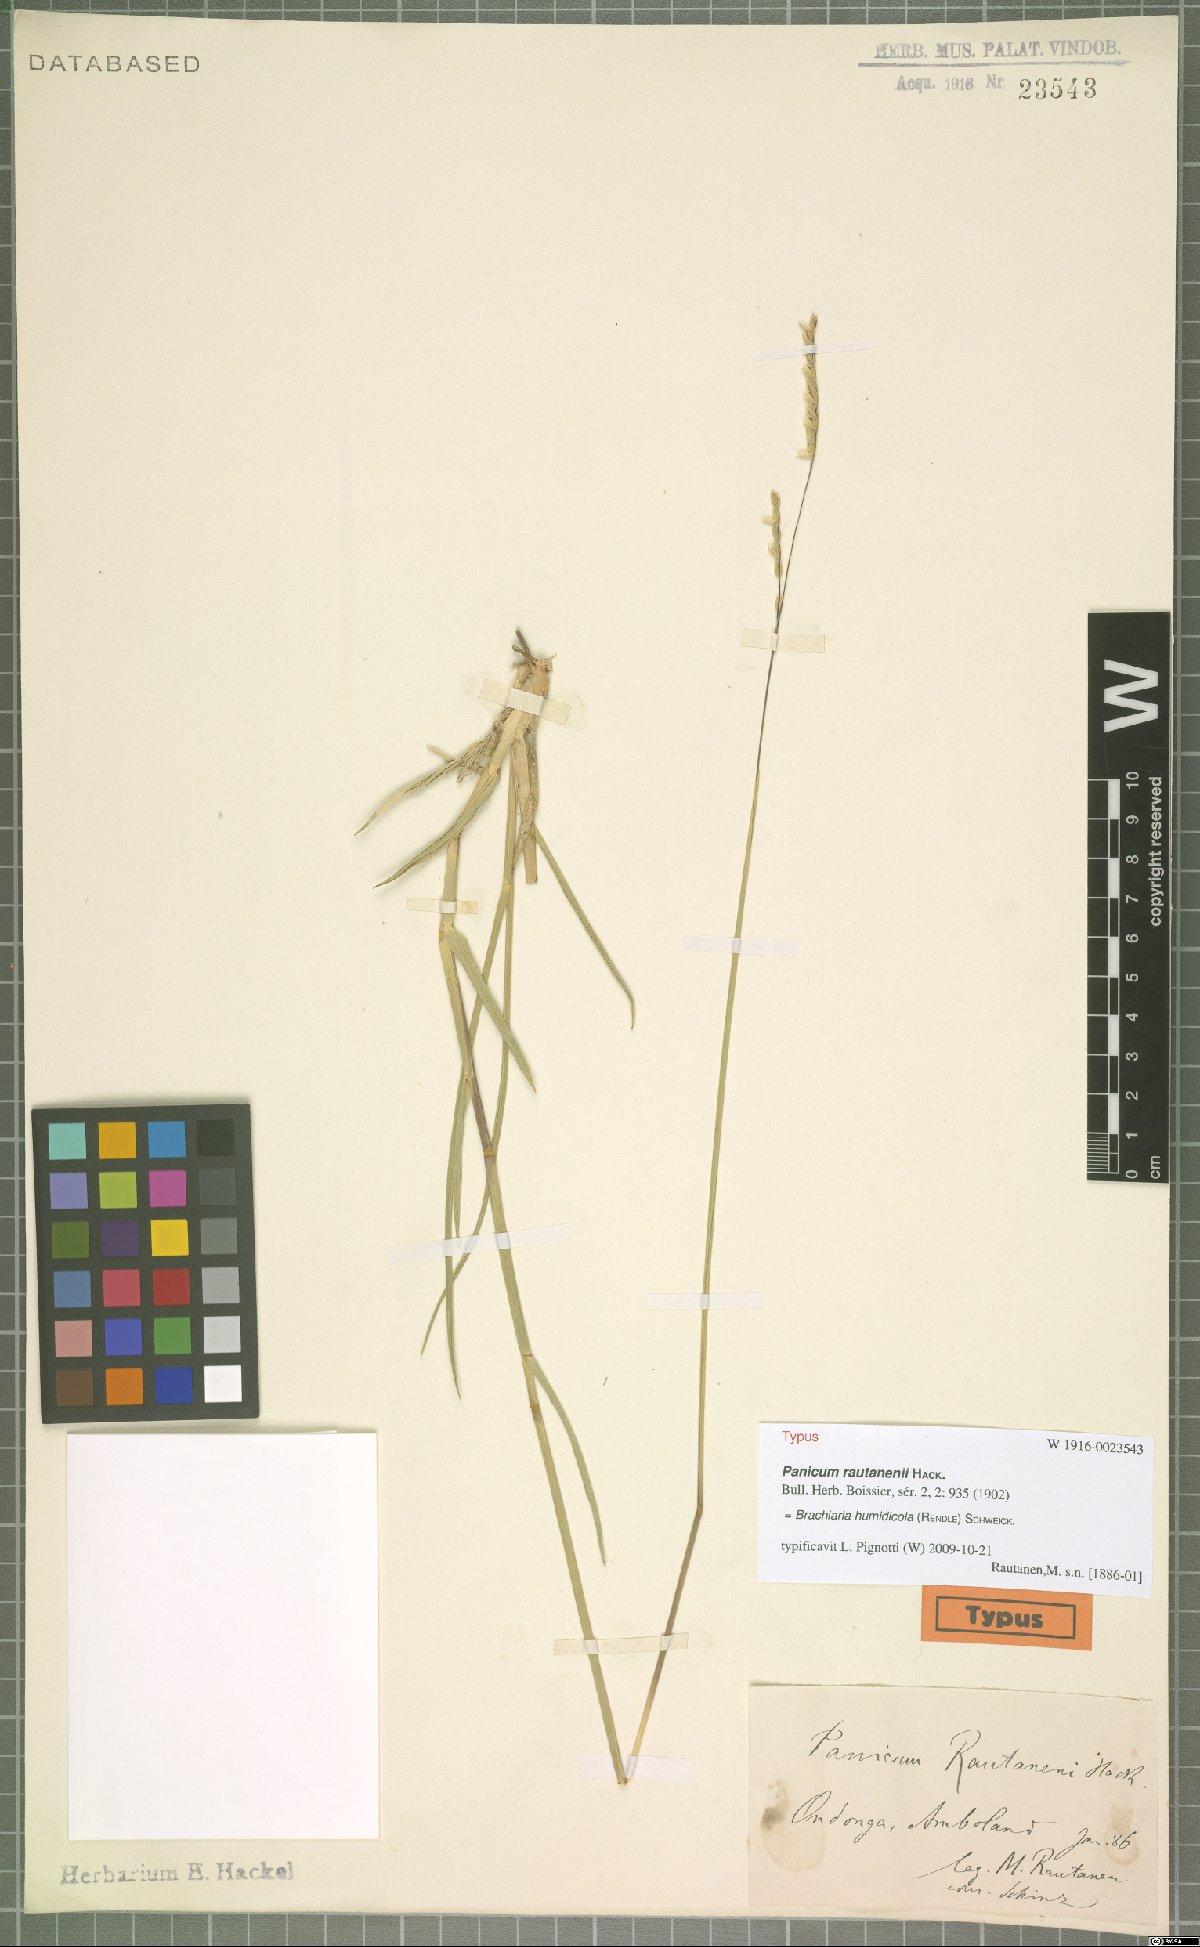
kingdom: Plantae
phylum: Tracheophyta
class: Liliopsida
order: Poales
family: Poaceae
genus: Urochloa
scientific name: Urochloa dictyoneura
